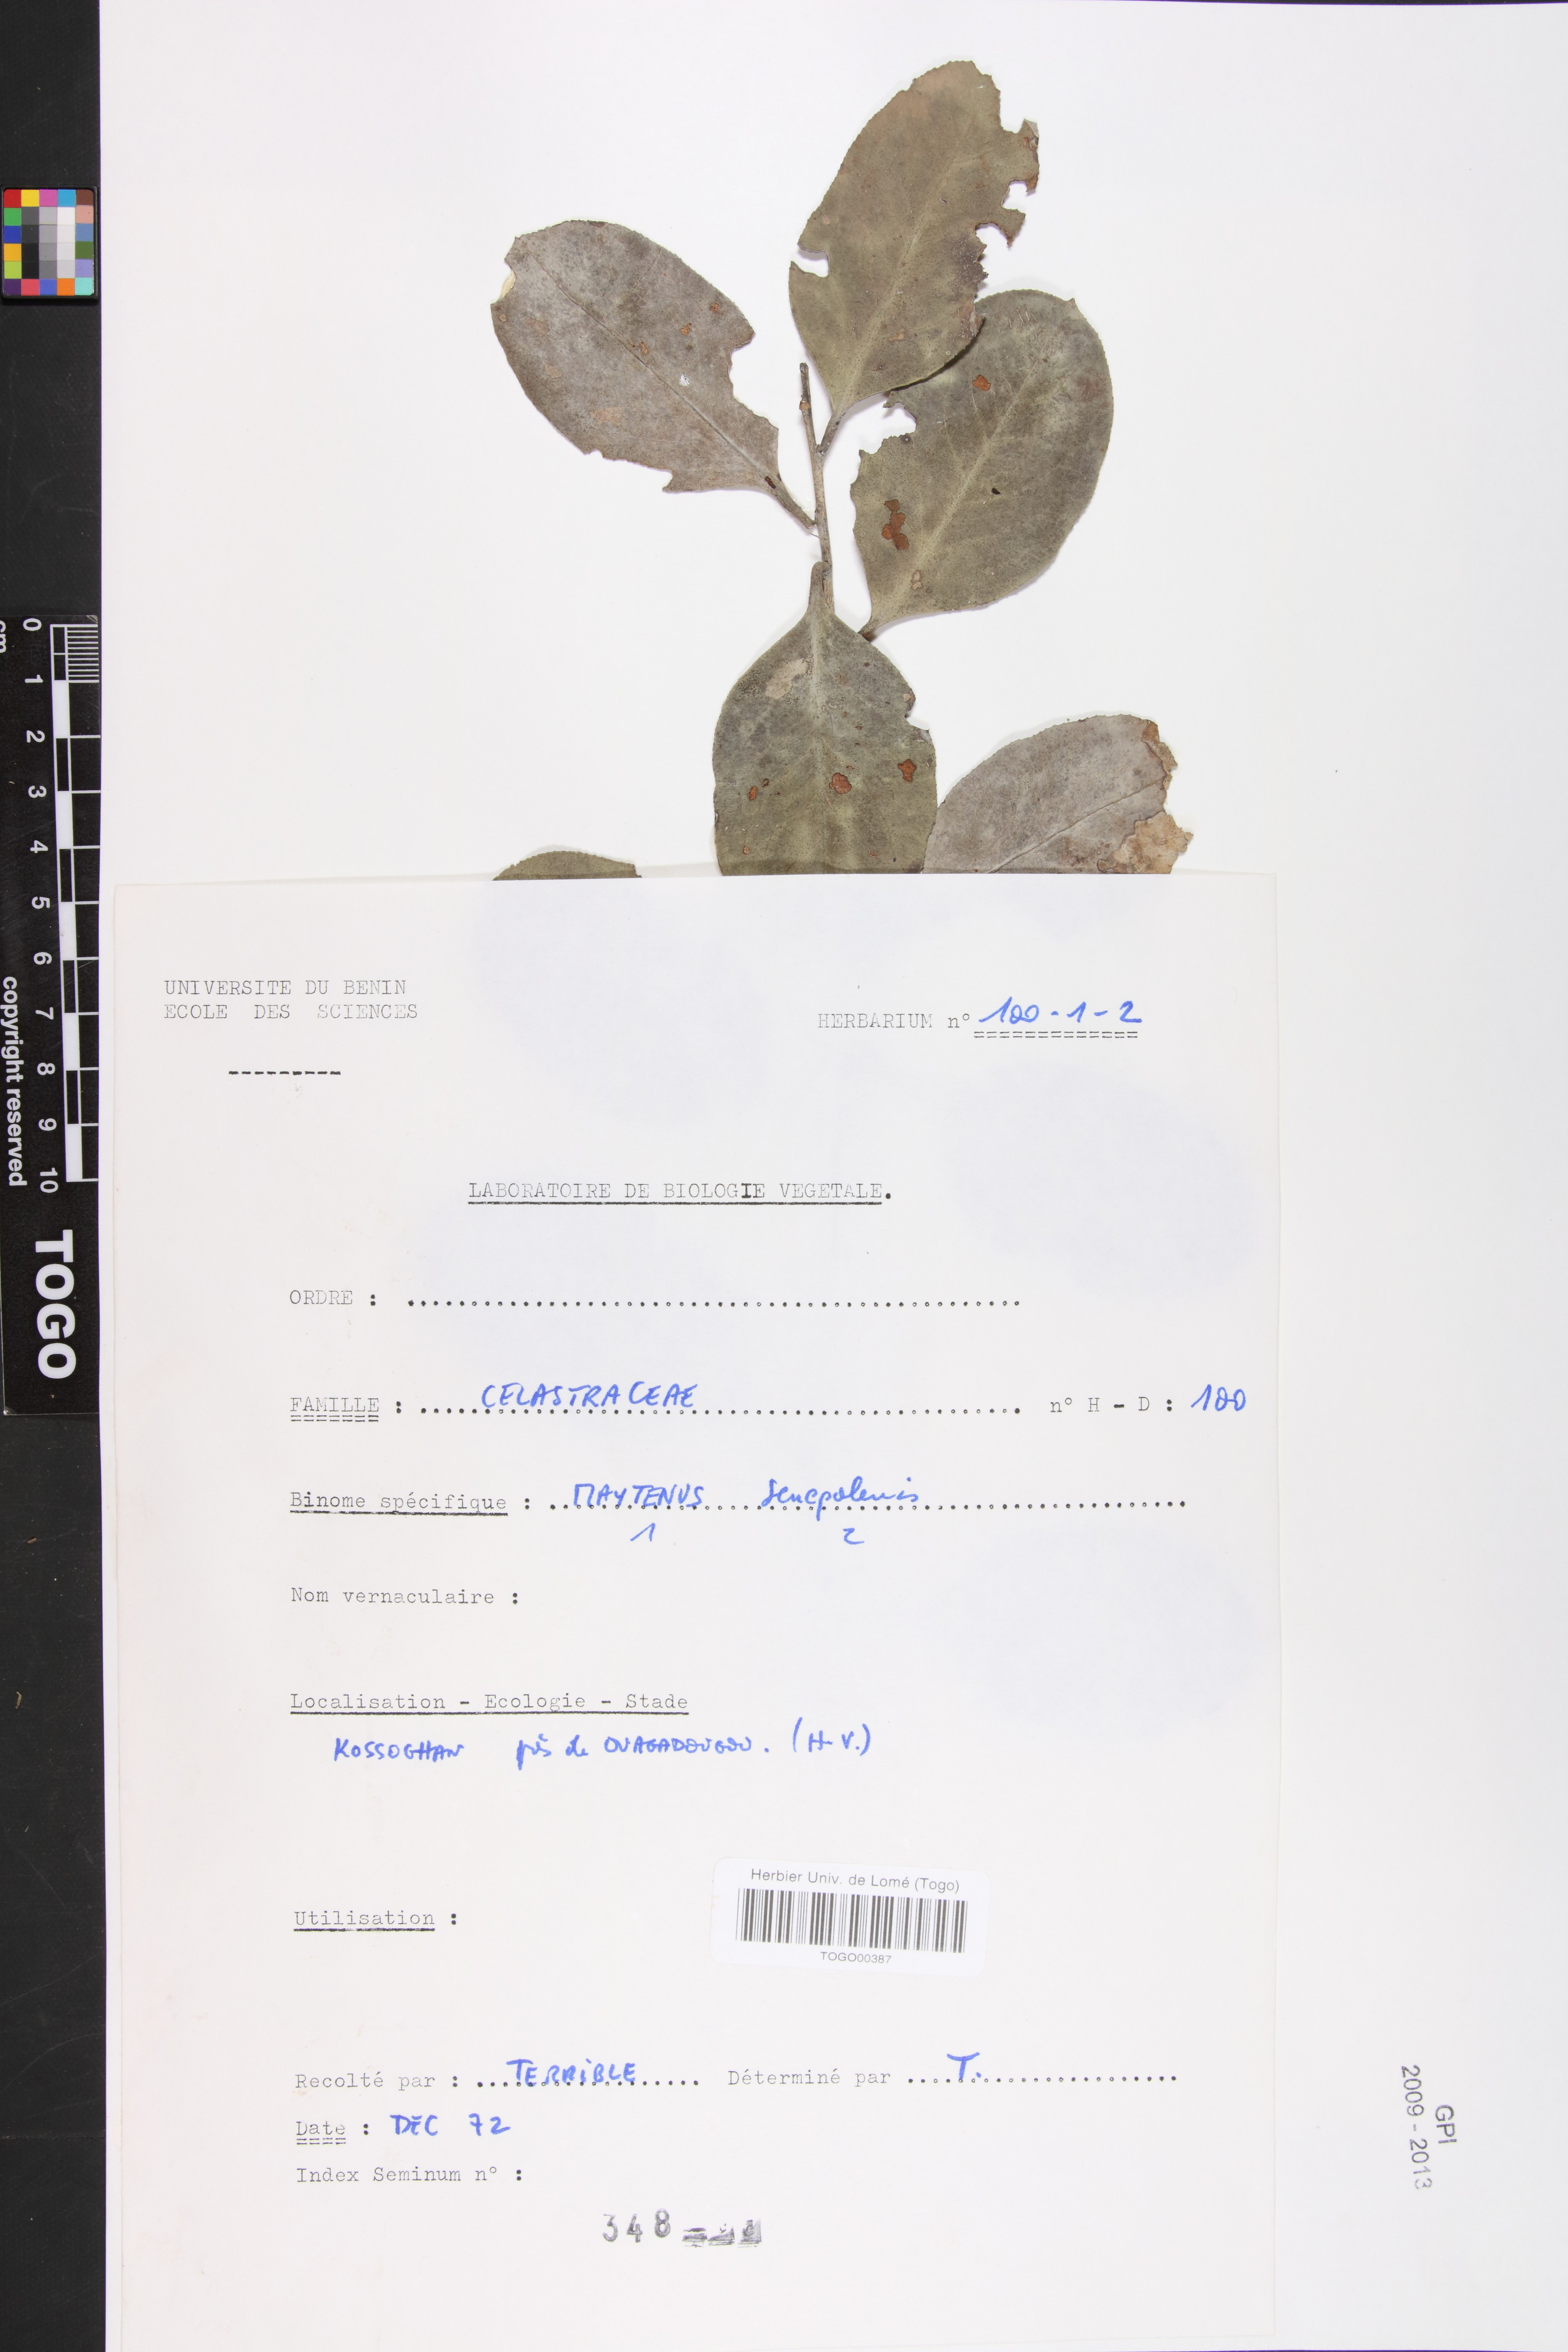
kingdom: Plantae
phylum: Tracheophyta
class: Magnoliopsida
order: Celastrales
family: Celastraceae
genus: Gymnosporia
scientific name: Gymnosporia senegalensis
